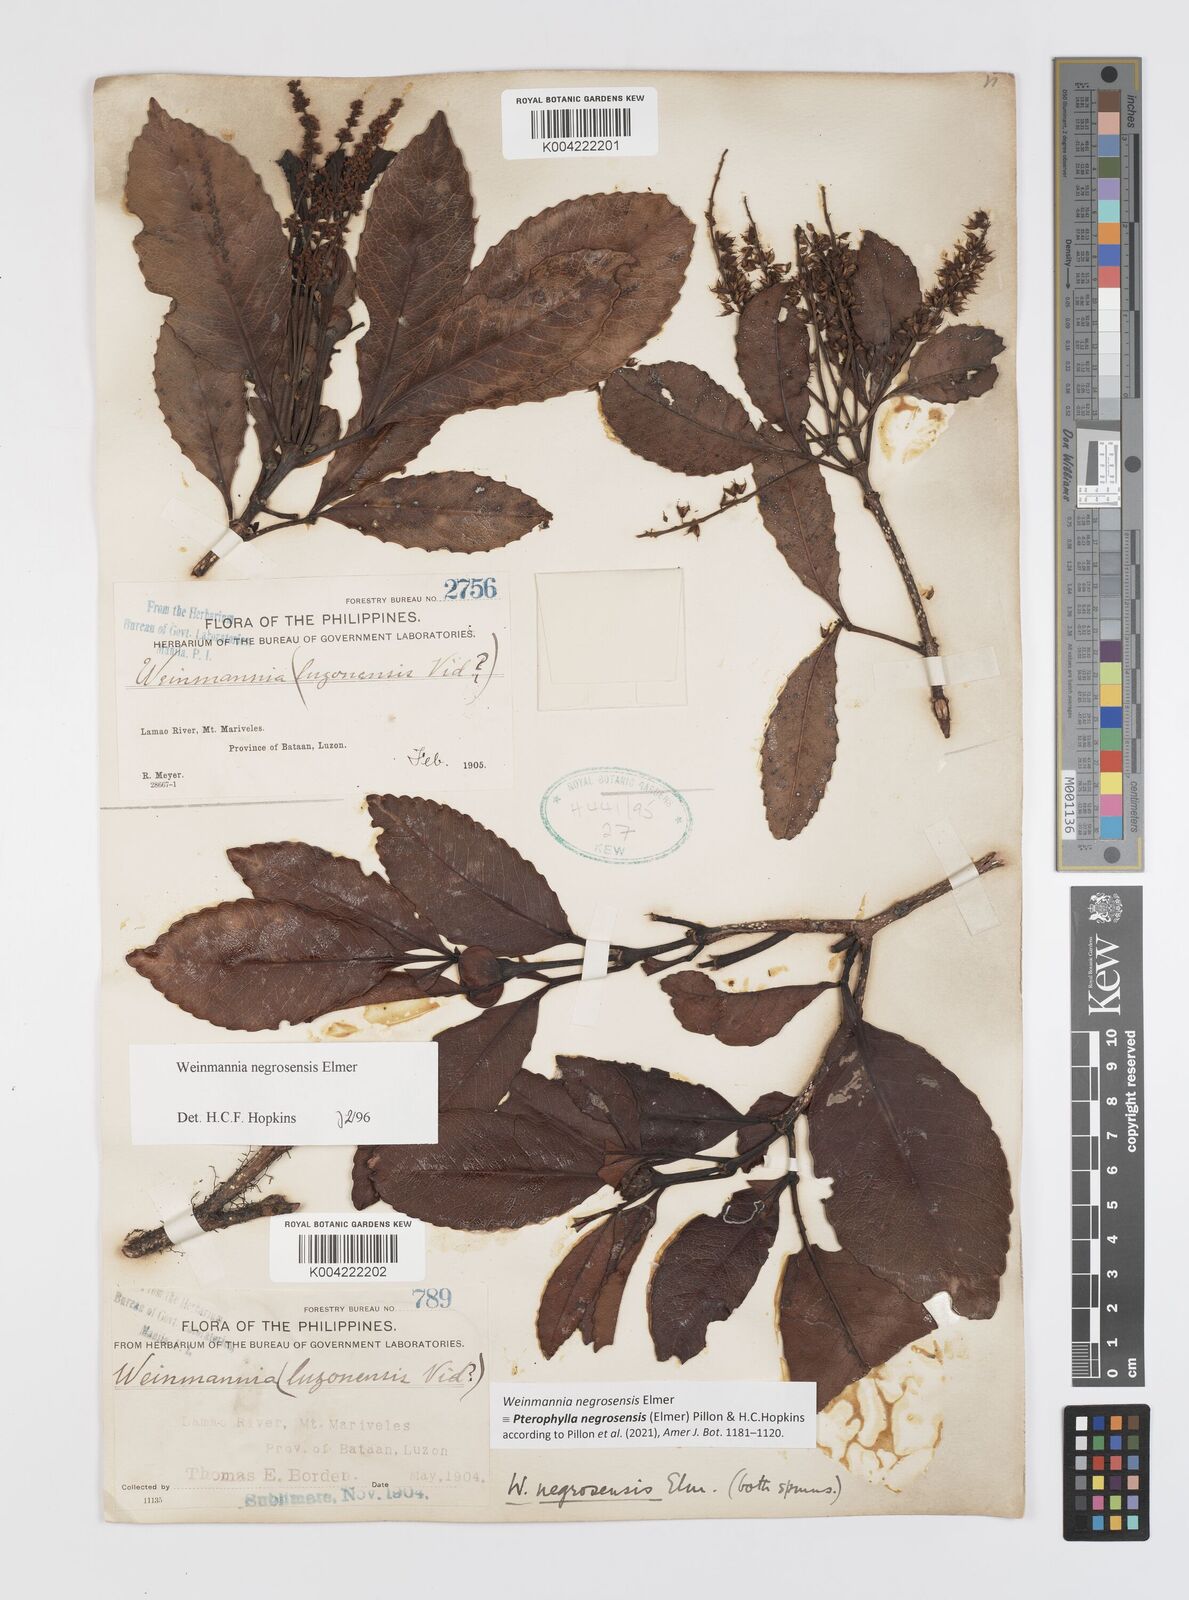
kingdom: Plantae
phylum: Tracheophyta
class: Magnoliopsida
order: Oxalidales
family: Cunoniaceae
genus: Pterophylla
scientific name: Pterophylla negrosensis
